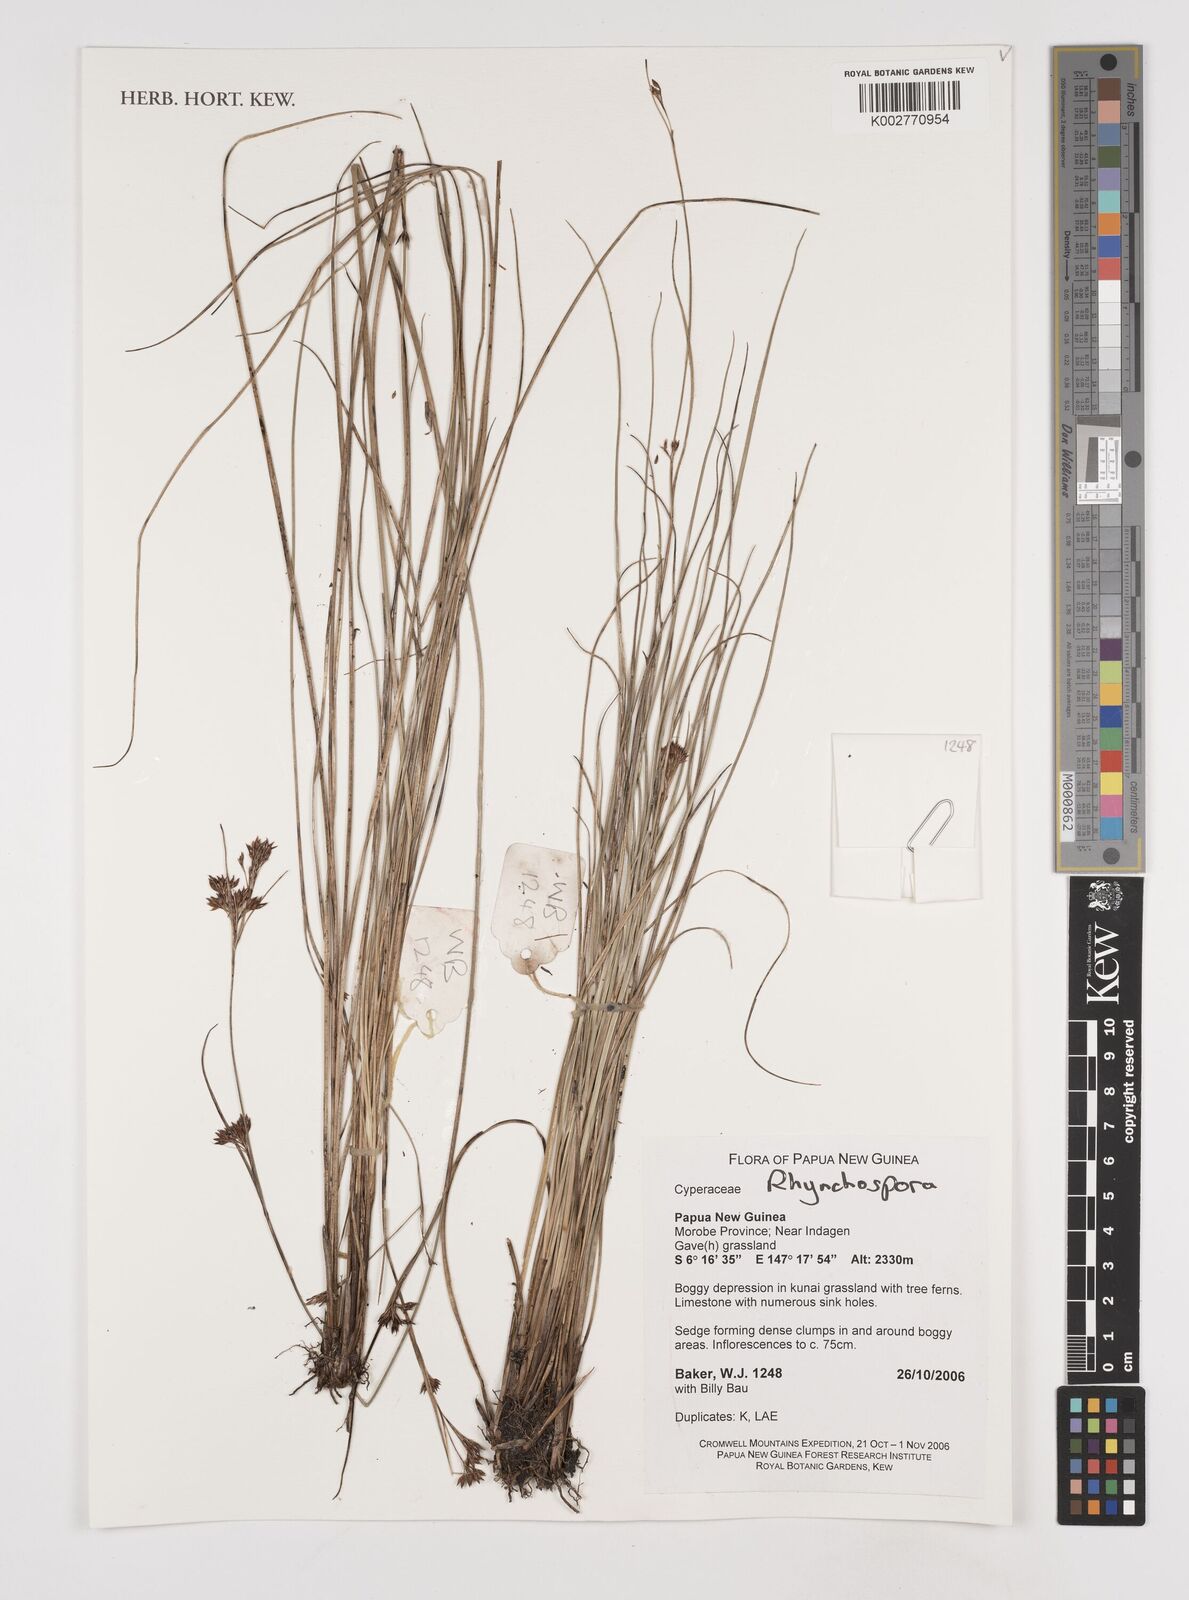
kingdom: Plantae
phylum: Tracheophyta
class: Liliopsida
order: Poales
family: Cyperaceae
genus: Rhynchospora
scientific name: Rhynchospora
